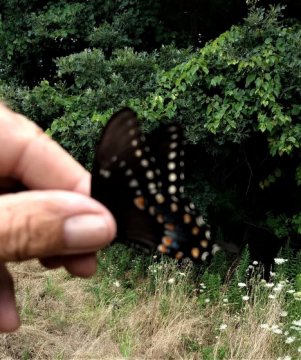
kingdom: Animalia
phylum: Arthropoda
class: Insecta
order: Lepidoptera
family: Papilionidae
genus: Pterourus
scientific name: Pterourus troilus
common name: Spicebush Swallowtail
